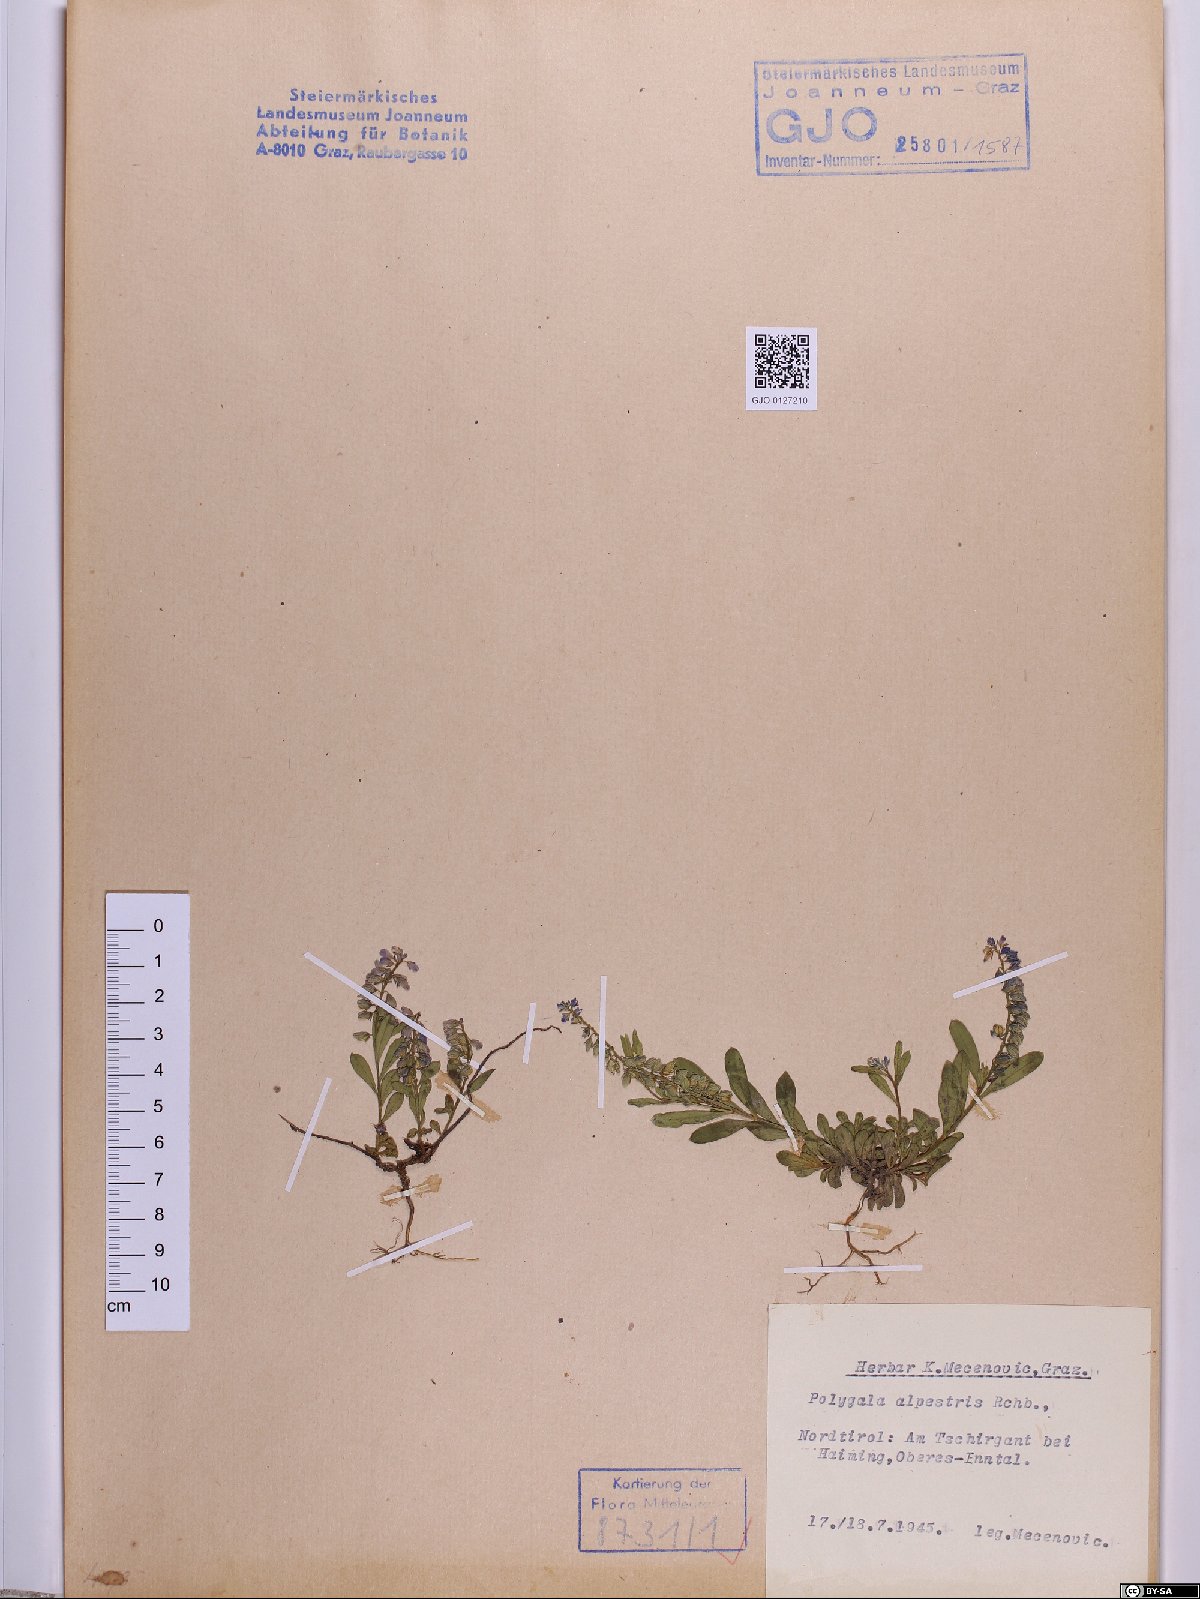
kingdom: Plantae
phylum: Tracheophyta
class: Magnoliopsida
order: Fabales
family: Polygalaceae
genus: Polygala
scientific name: Polygala alpestris
